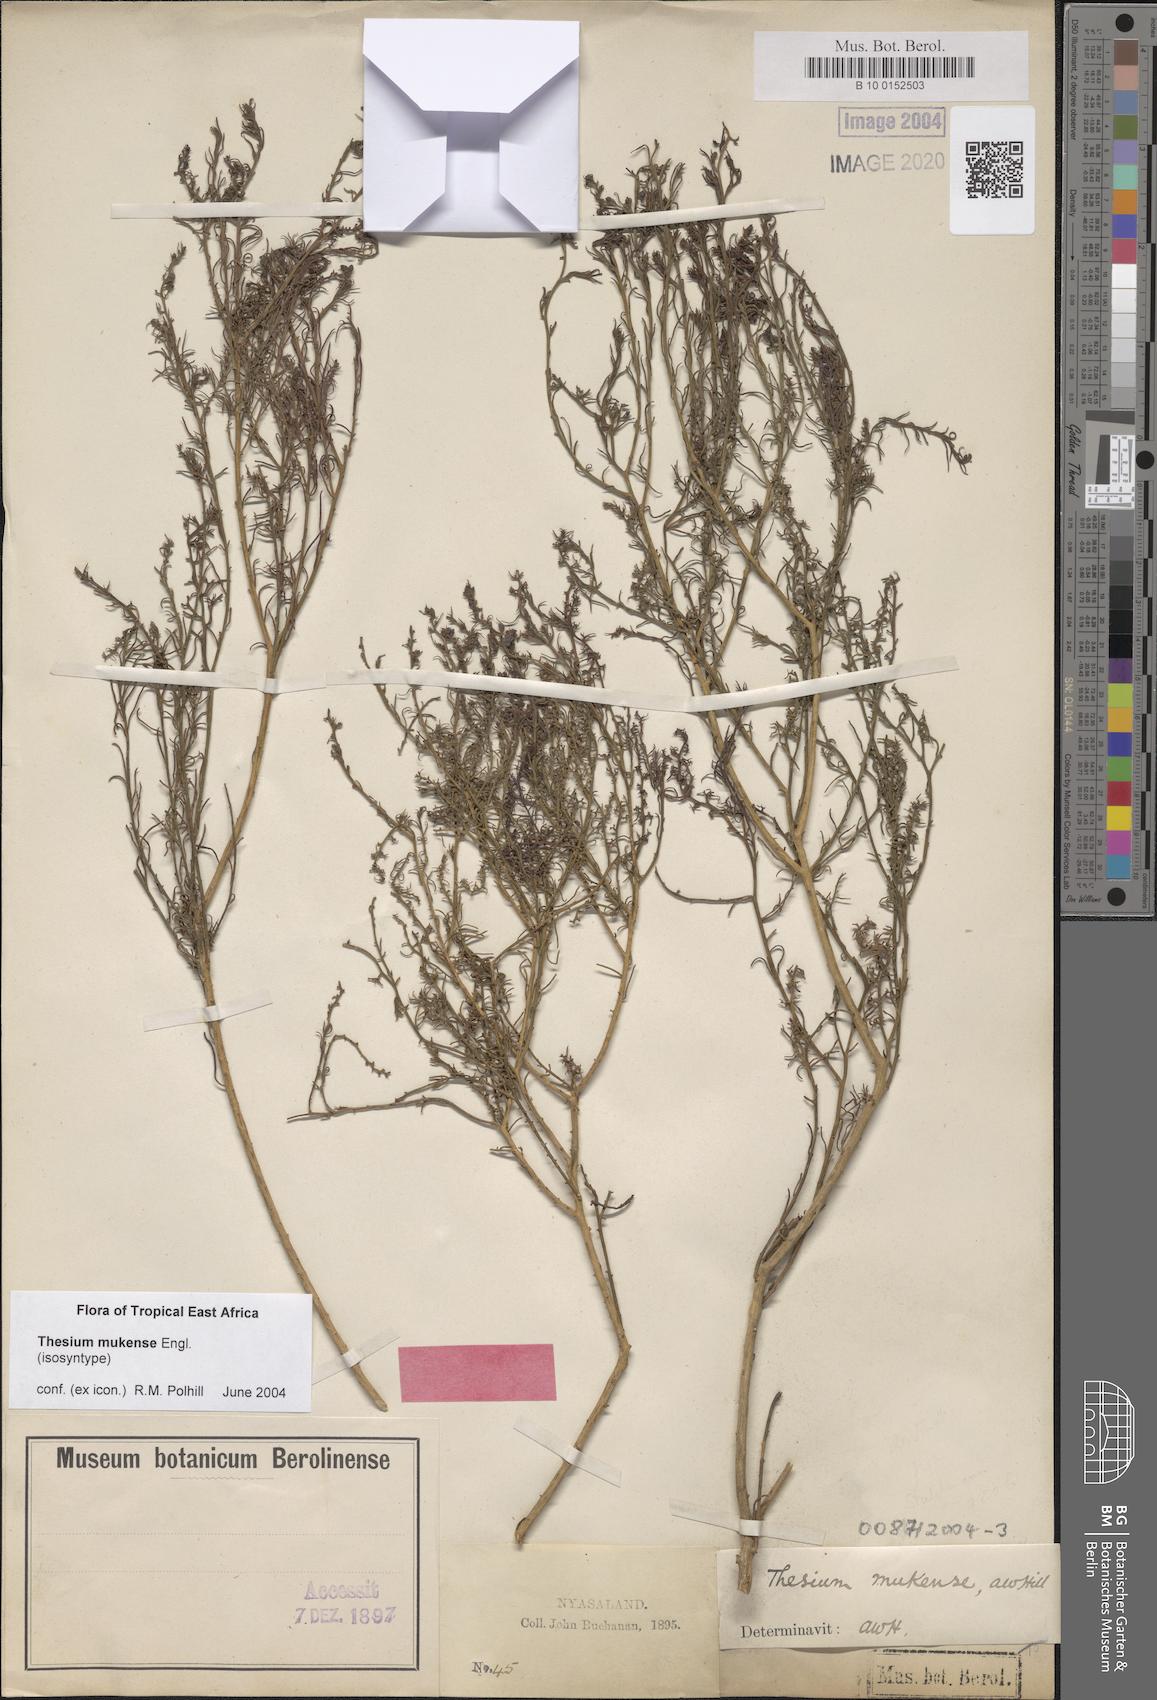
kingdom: Plantae
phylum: Tracheophyta
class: Magnoliopsida
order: Santalales
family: Thesiaceae
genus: Thesium
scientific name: Thesium whyteanum
